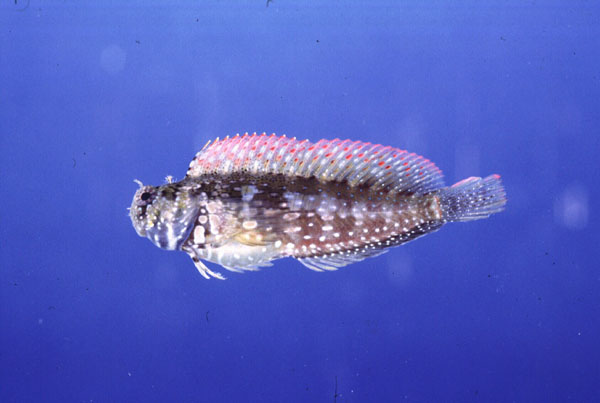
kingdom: Animalia
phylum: Chordata
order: Perciformes
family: Blenniidae
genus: Salarias
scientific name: Salarias fasciatus
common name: Jewelled blenny
